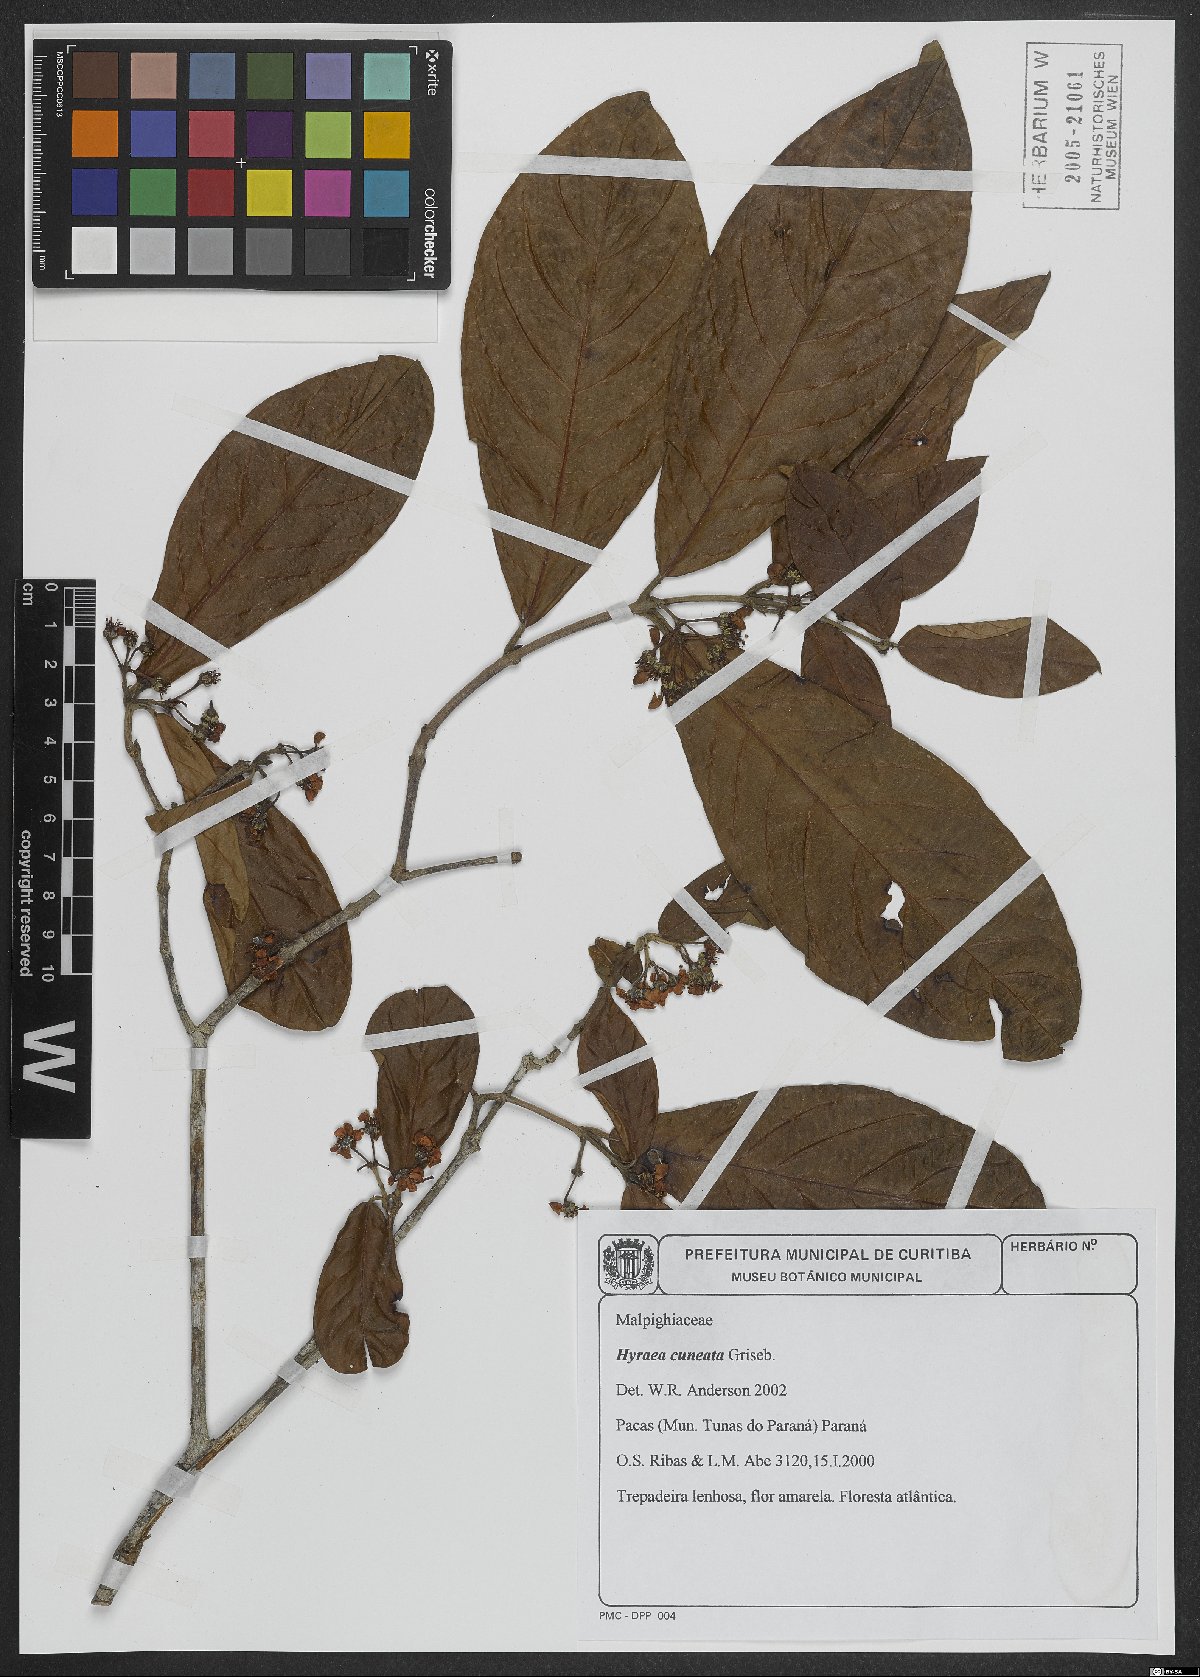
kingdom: Plantae
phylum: Tracheophyta
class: Magnoliopsida
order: Malpighiales
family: Malpighiaceae
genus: Hiraea
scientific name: Hiraea cuneata
